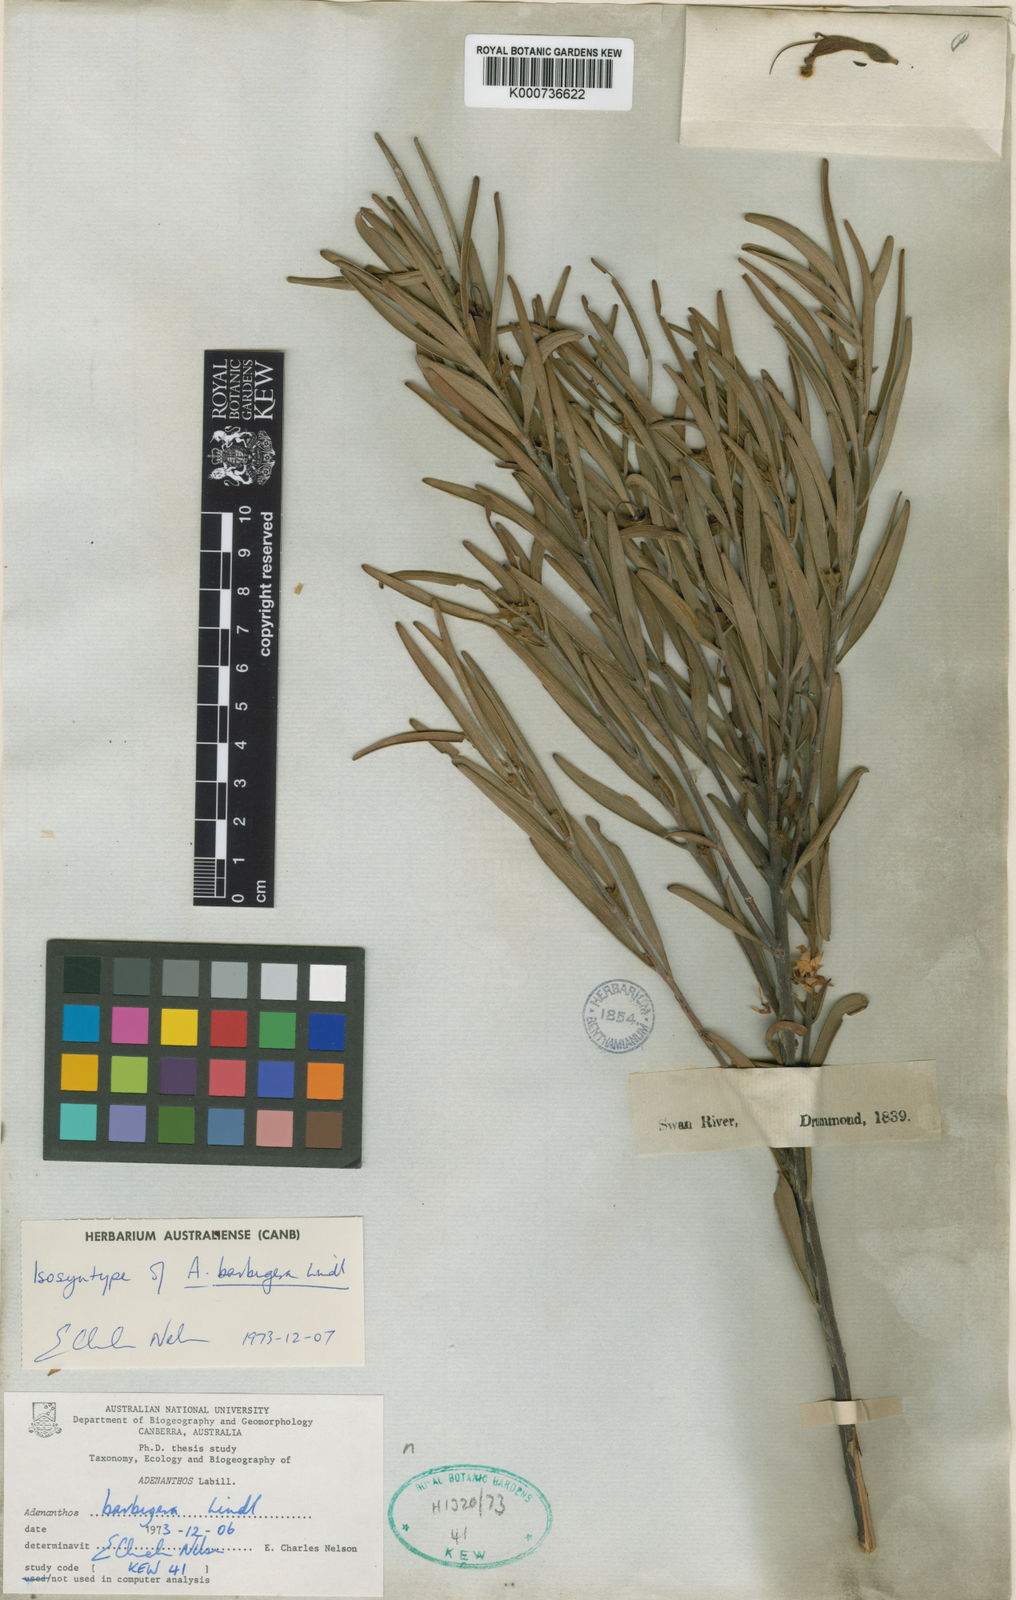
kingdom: Plantae
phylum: Tracheophyta
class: Magnoliopsida
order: Proteales
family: Proteaceae
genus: Adenanthos
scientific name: Adenanthos barbiger
